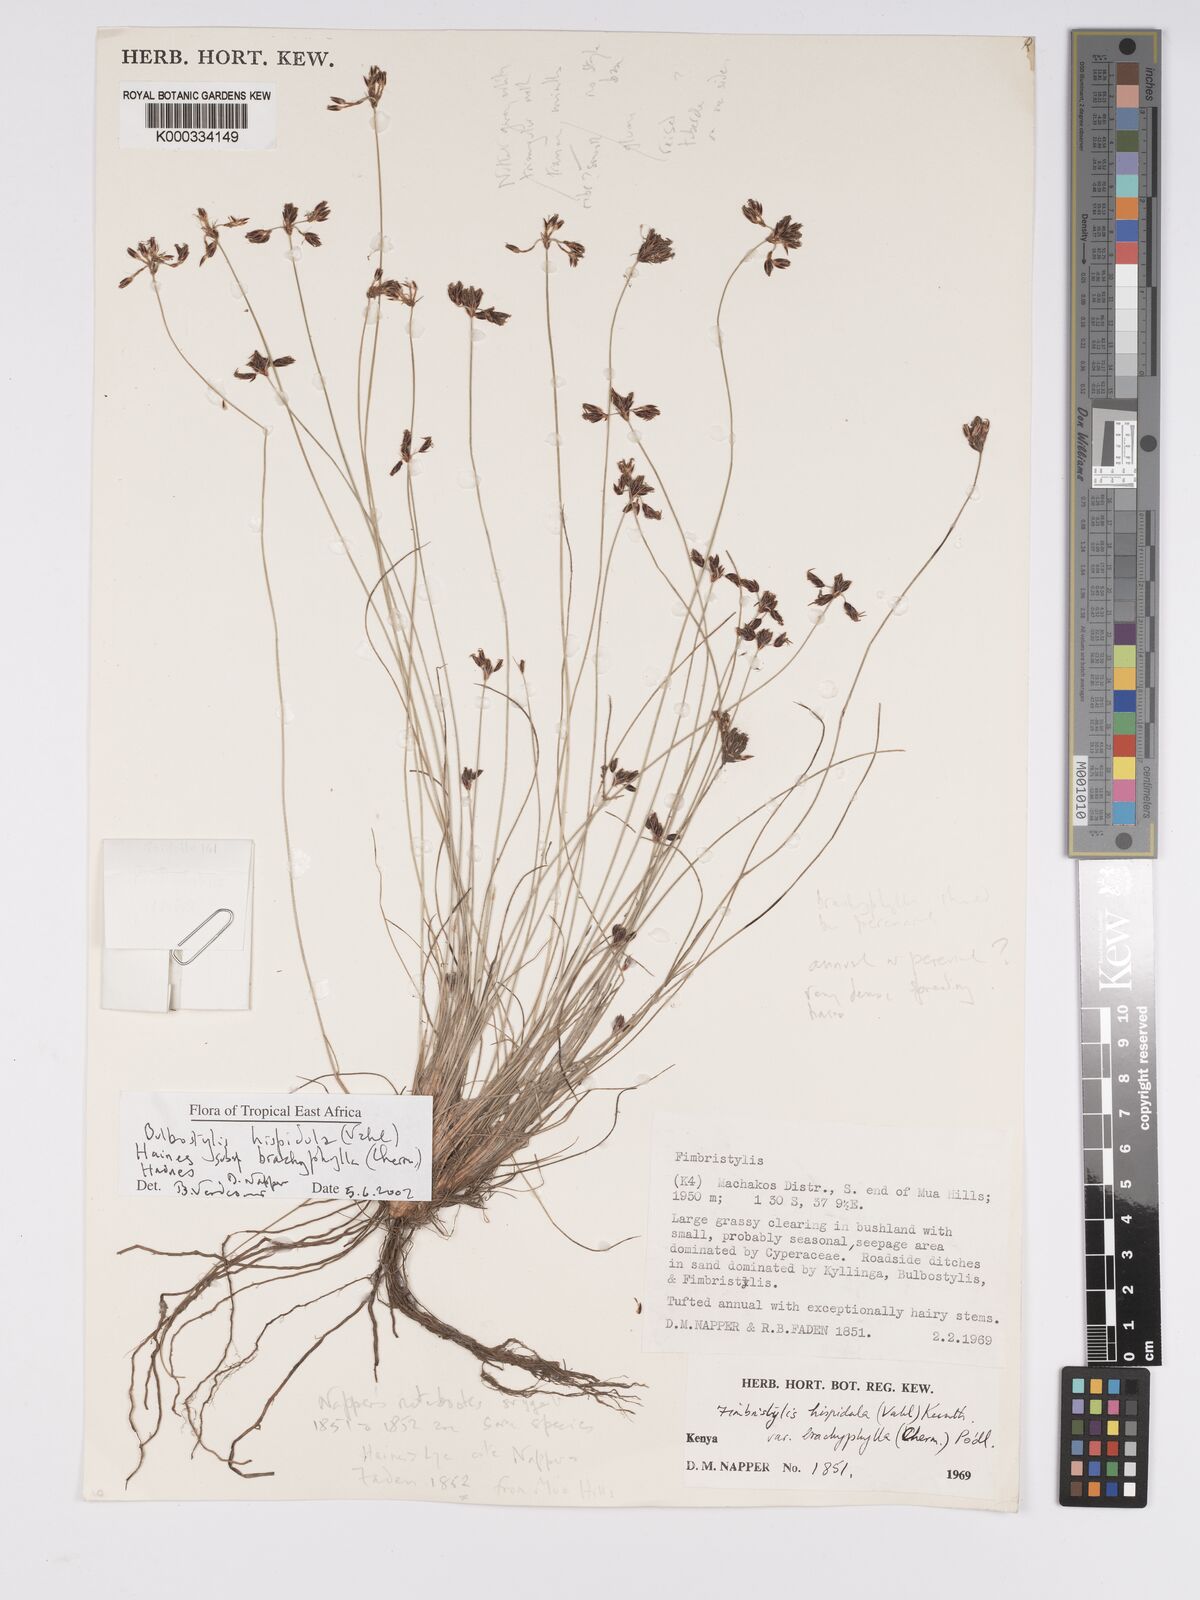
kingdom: Plantae
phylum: Tracheophyta
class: Liliopsida
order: Poales
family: Cyperaceae
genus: Bulbostylis
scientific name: Bulbostylis hispidula
